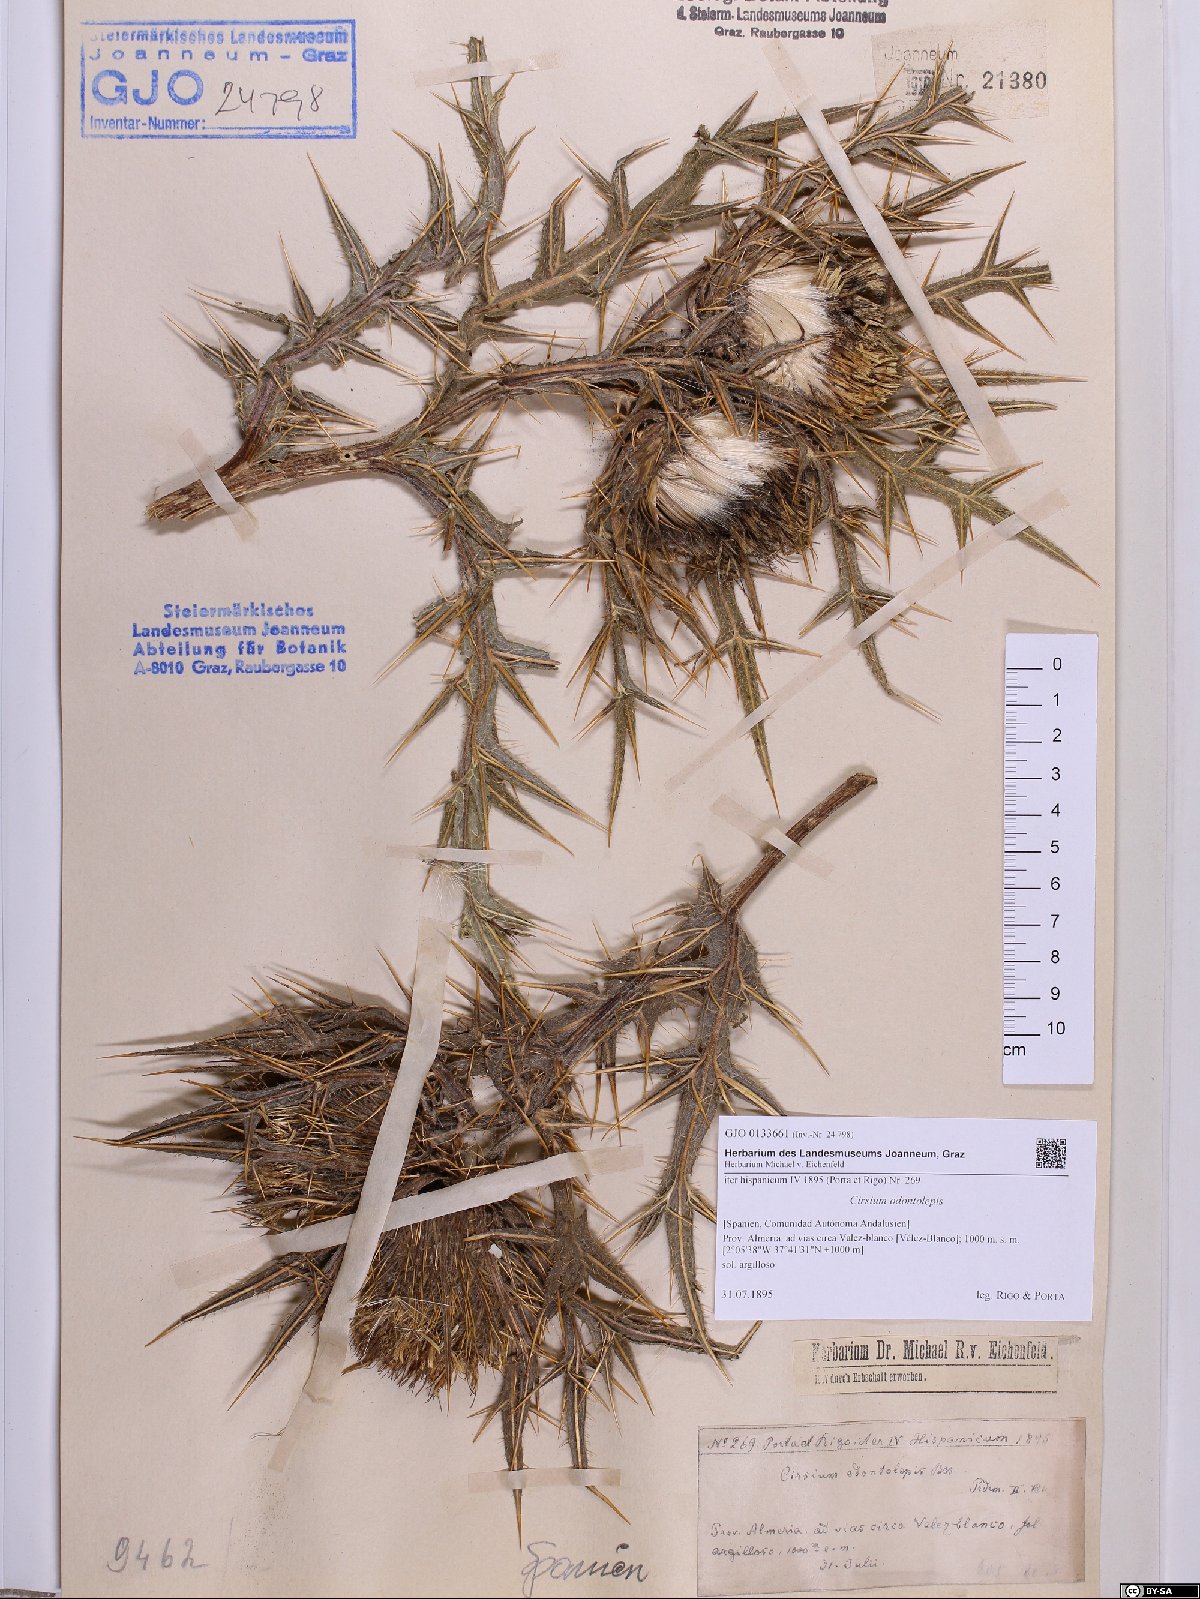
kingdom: Plantae
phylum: Tracheophyta
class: Magnoliopsida
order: Asterales
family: Asteraceae
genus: Lophiolepis
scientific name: Lophiolepis odontolepis
